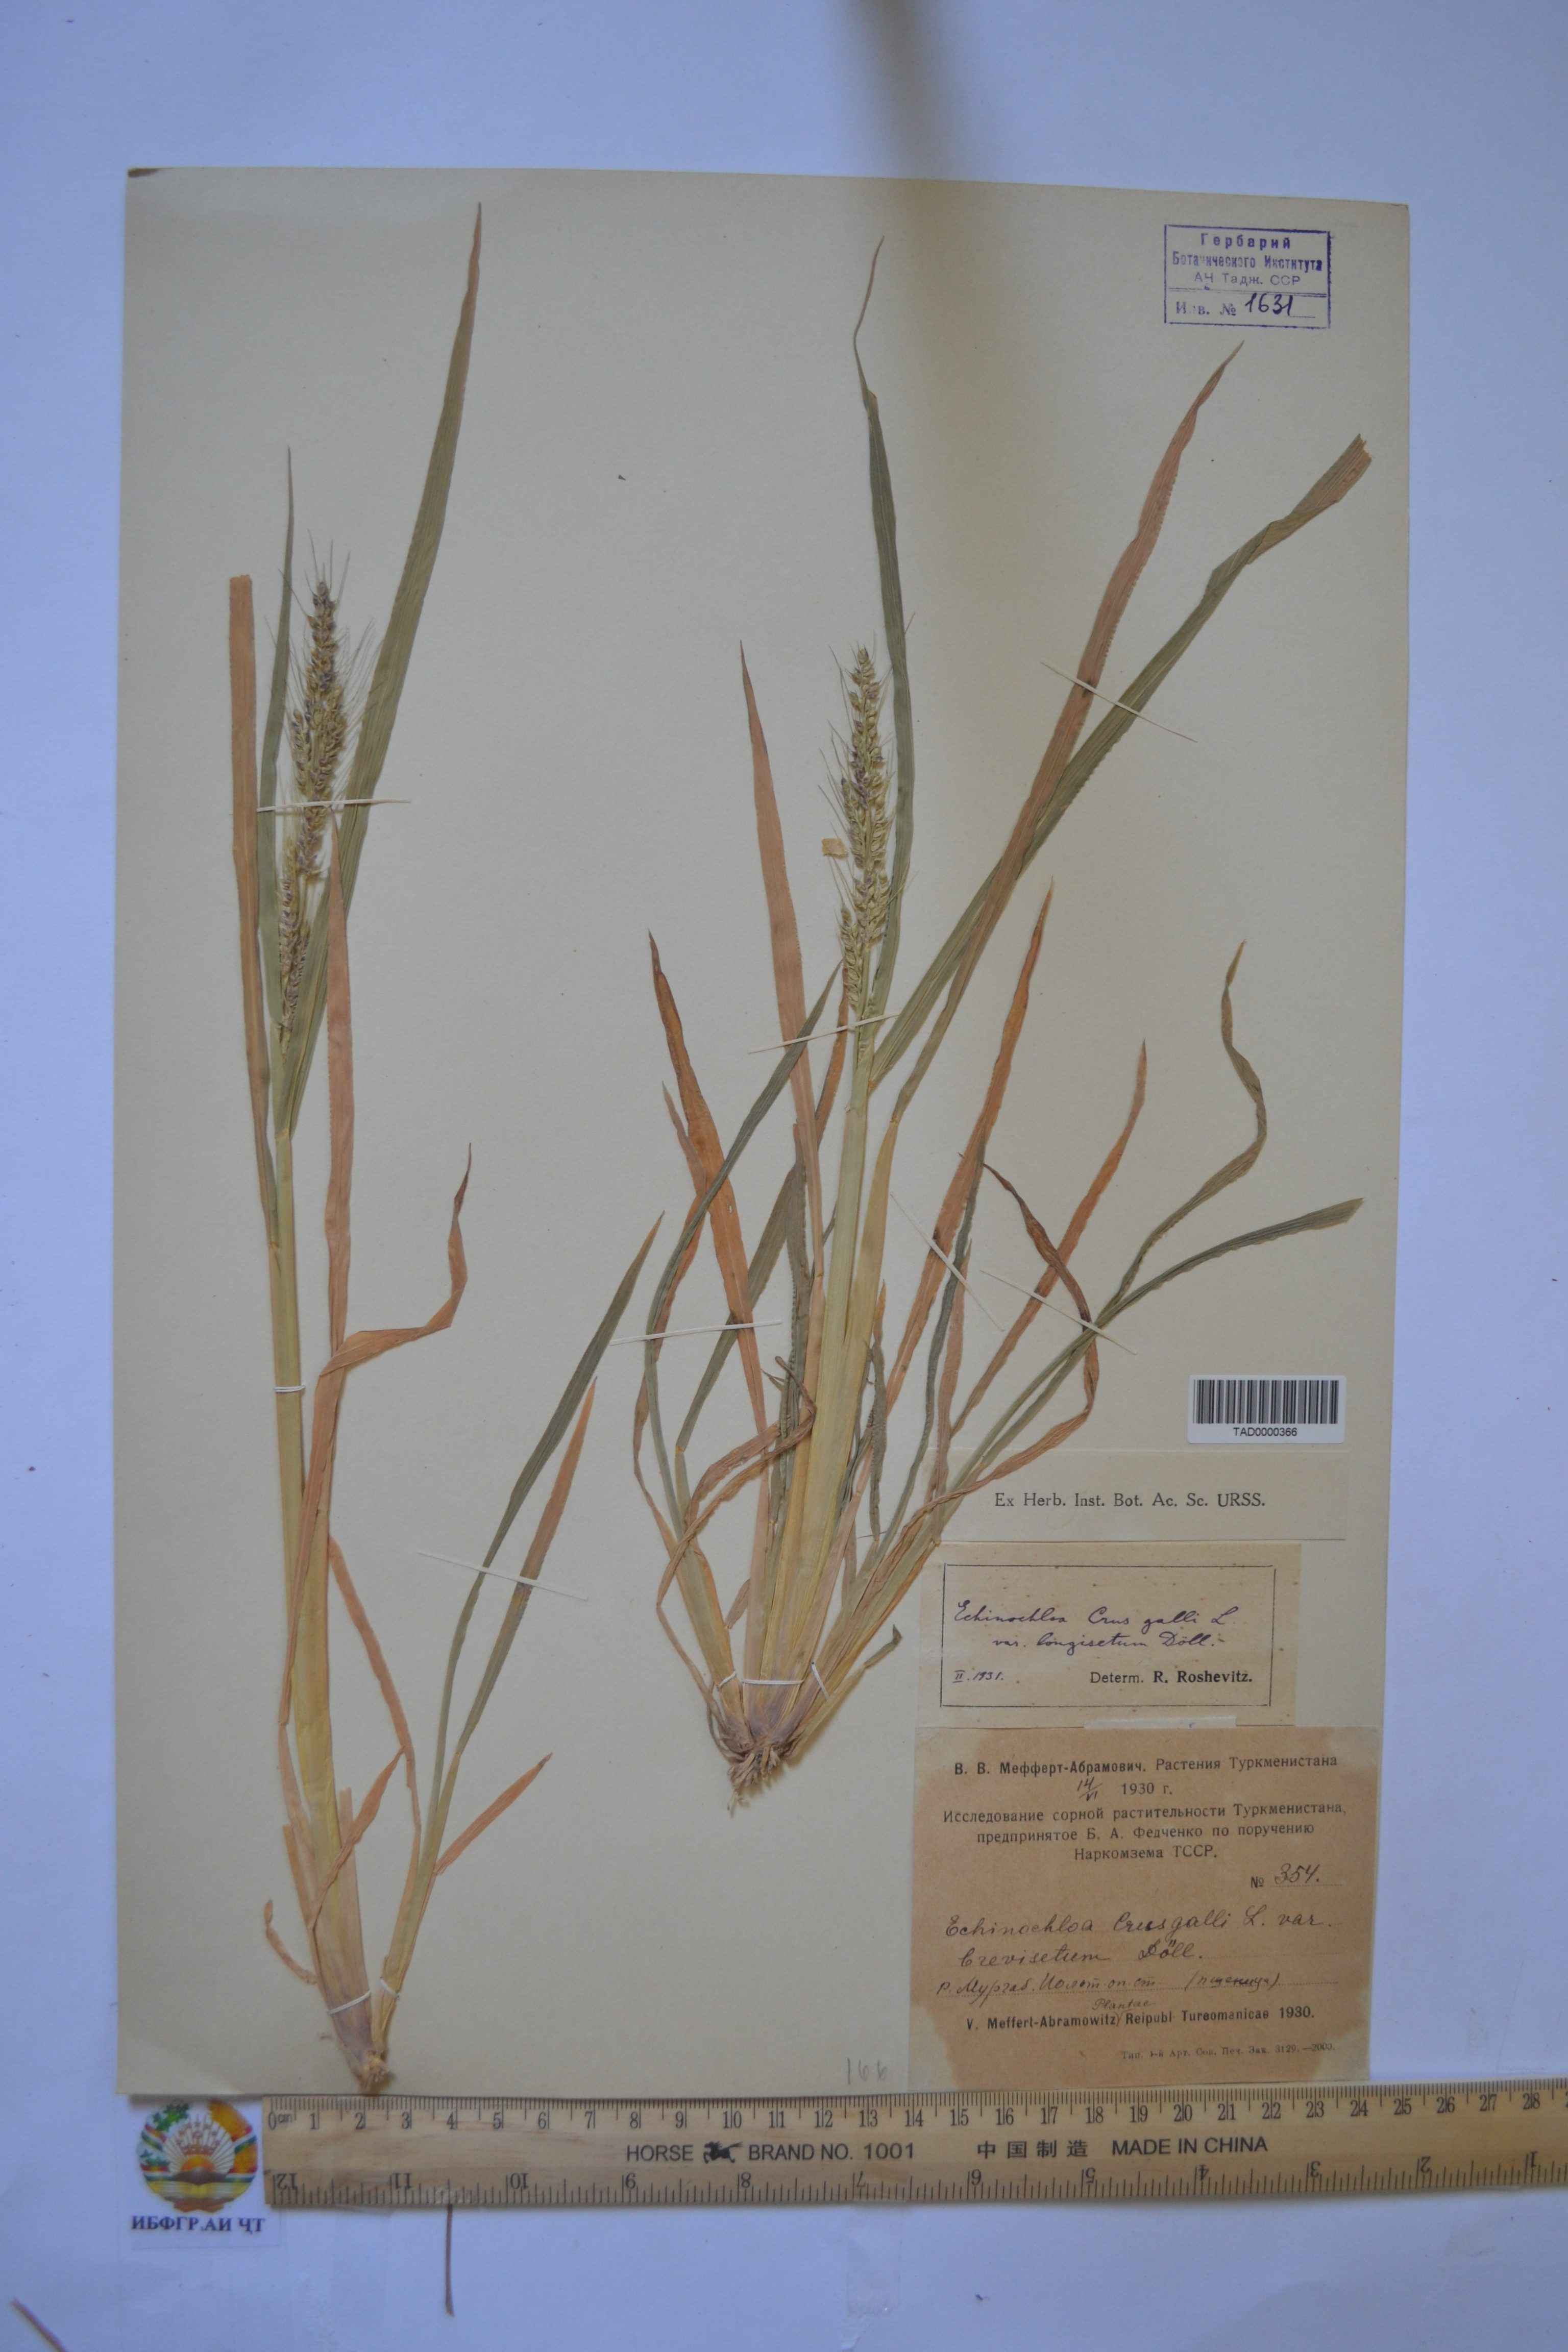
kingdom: Plantae
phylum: Tracheophyta
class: Liliopsida
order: Poales
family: Poaceae
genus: Echinochloa
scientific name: Echinochloa crus-galli
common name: Cockspur
